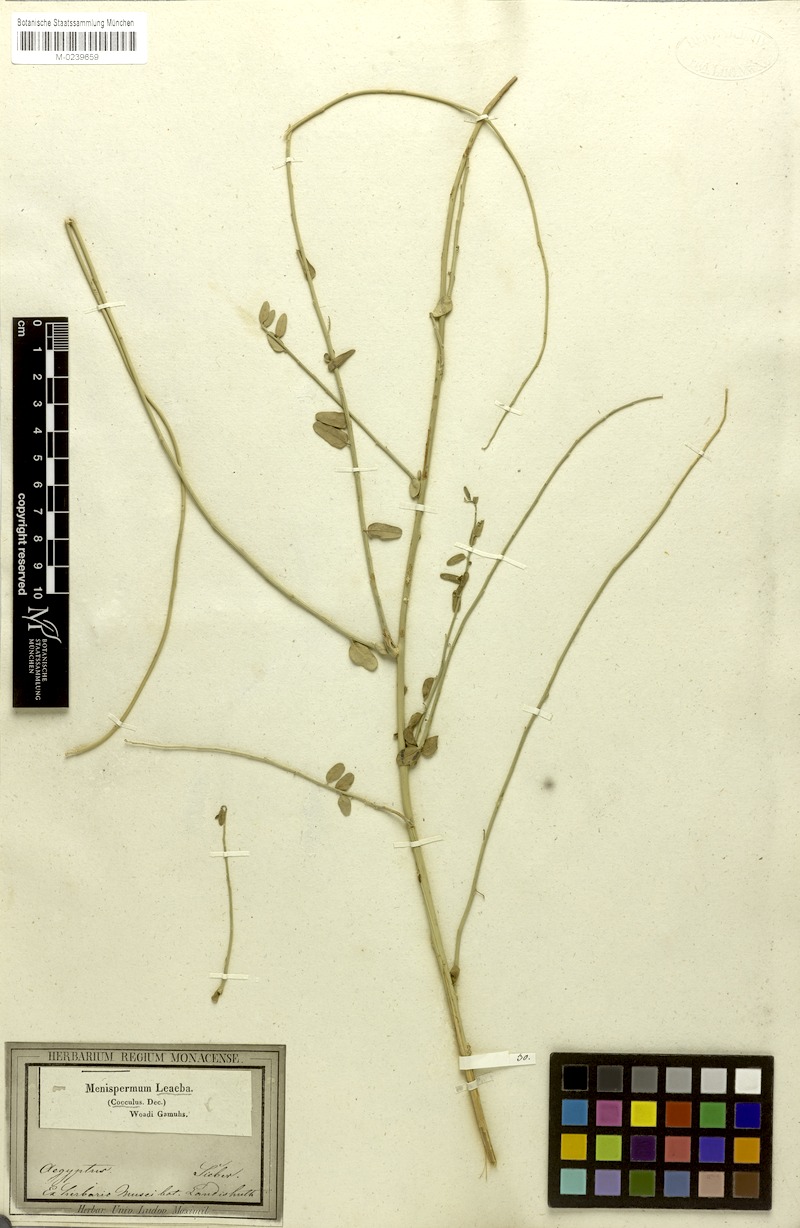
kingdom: Plantae
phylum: Tracheophyta
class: Magnoliopsida
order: Ranunculales
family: Menispermaceae
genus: Cocculus
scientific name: Cocculus pendulus
